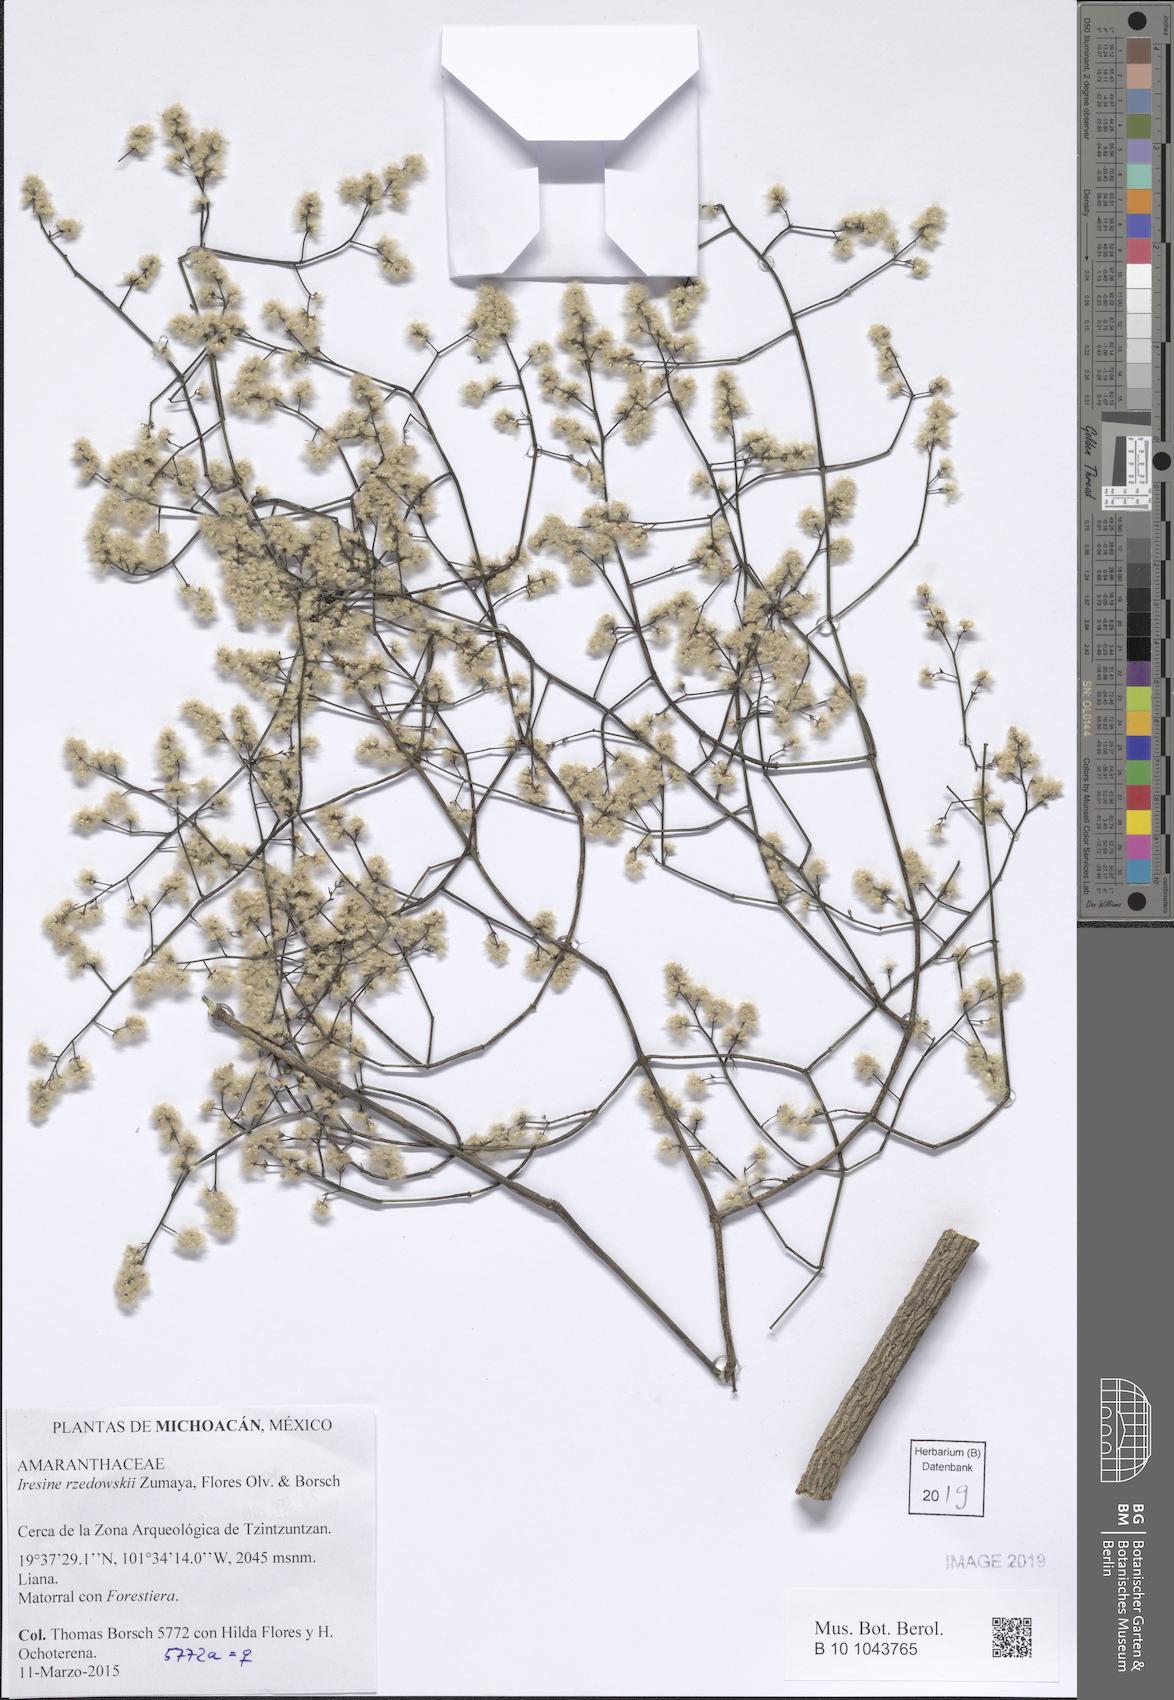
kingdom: Plantae
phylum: Tracheophyta
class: Magnoliopsida
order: Caryophyllales
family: Amaranthaceae
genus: Iresine
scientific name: Iresine rzedowskii
